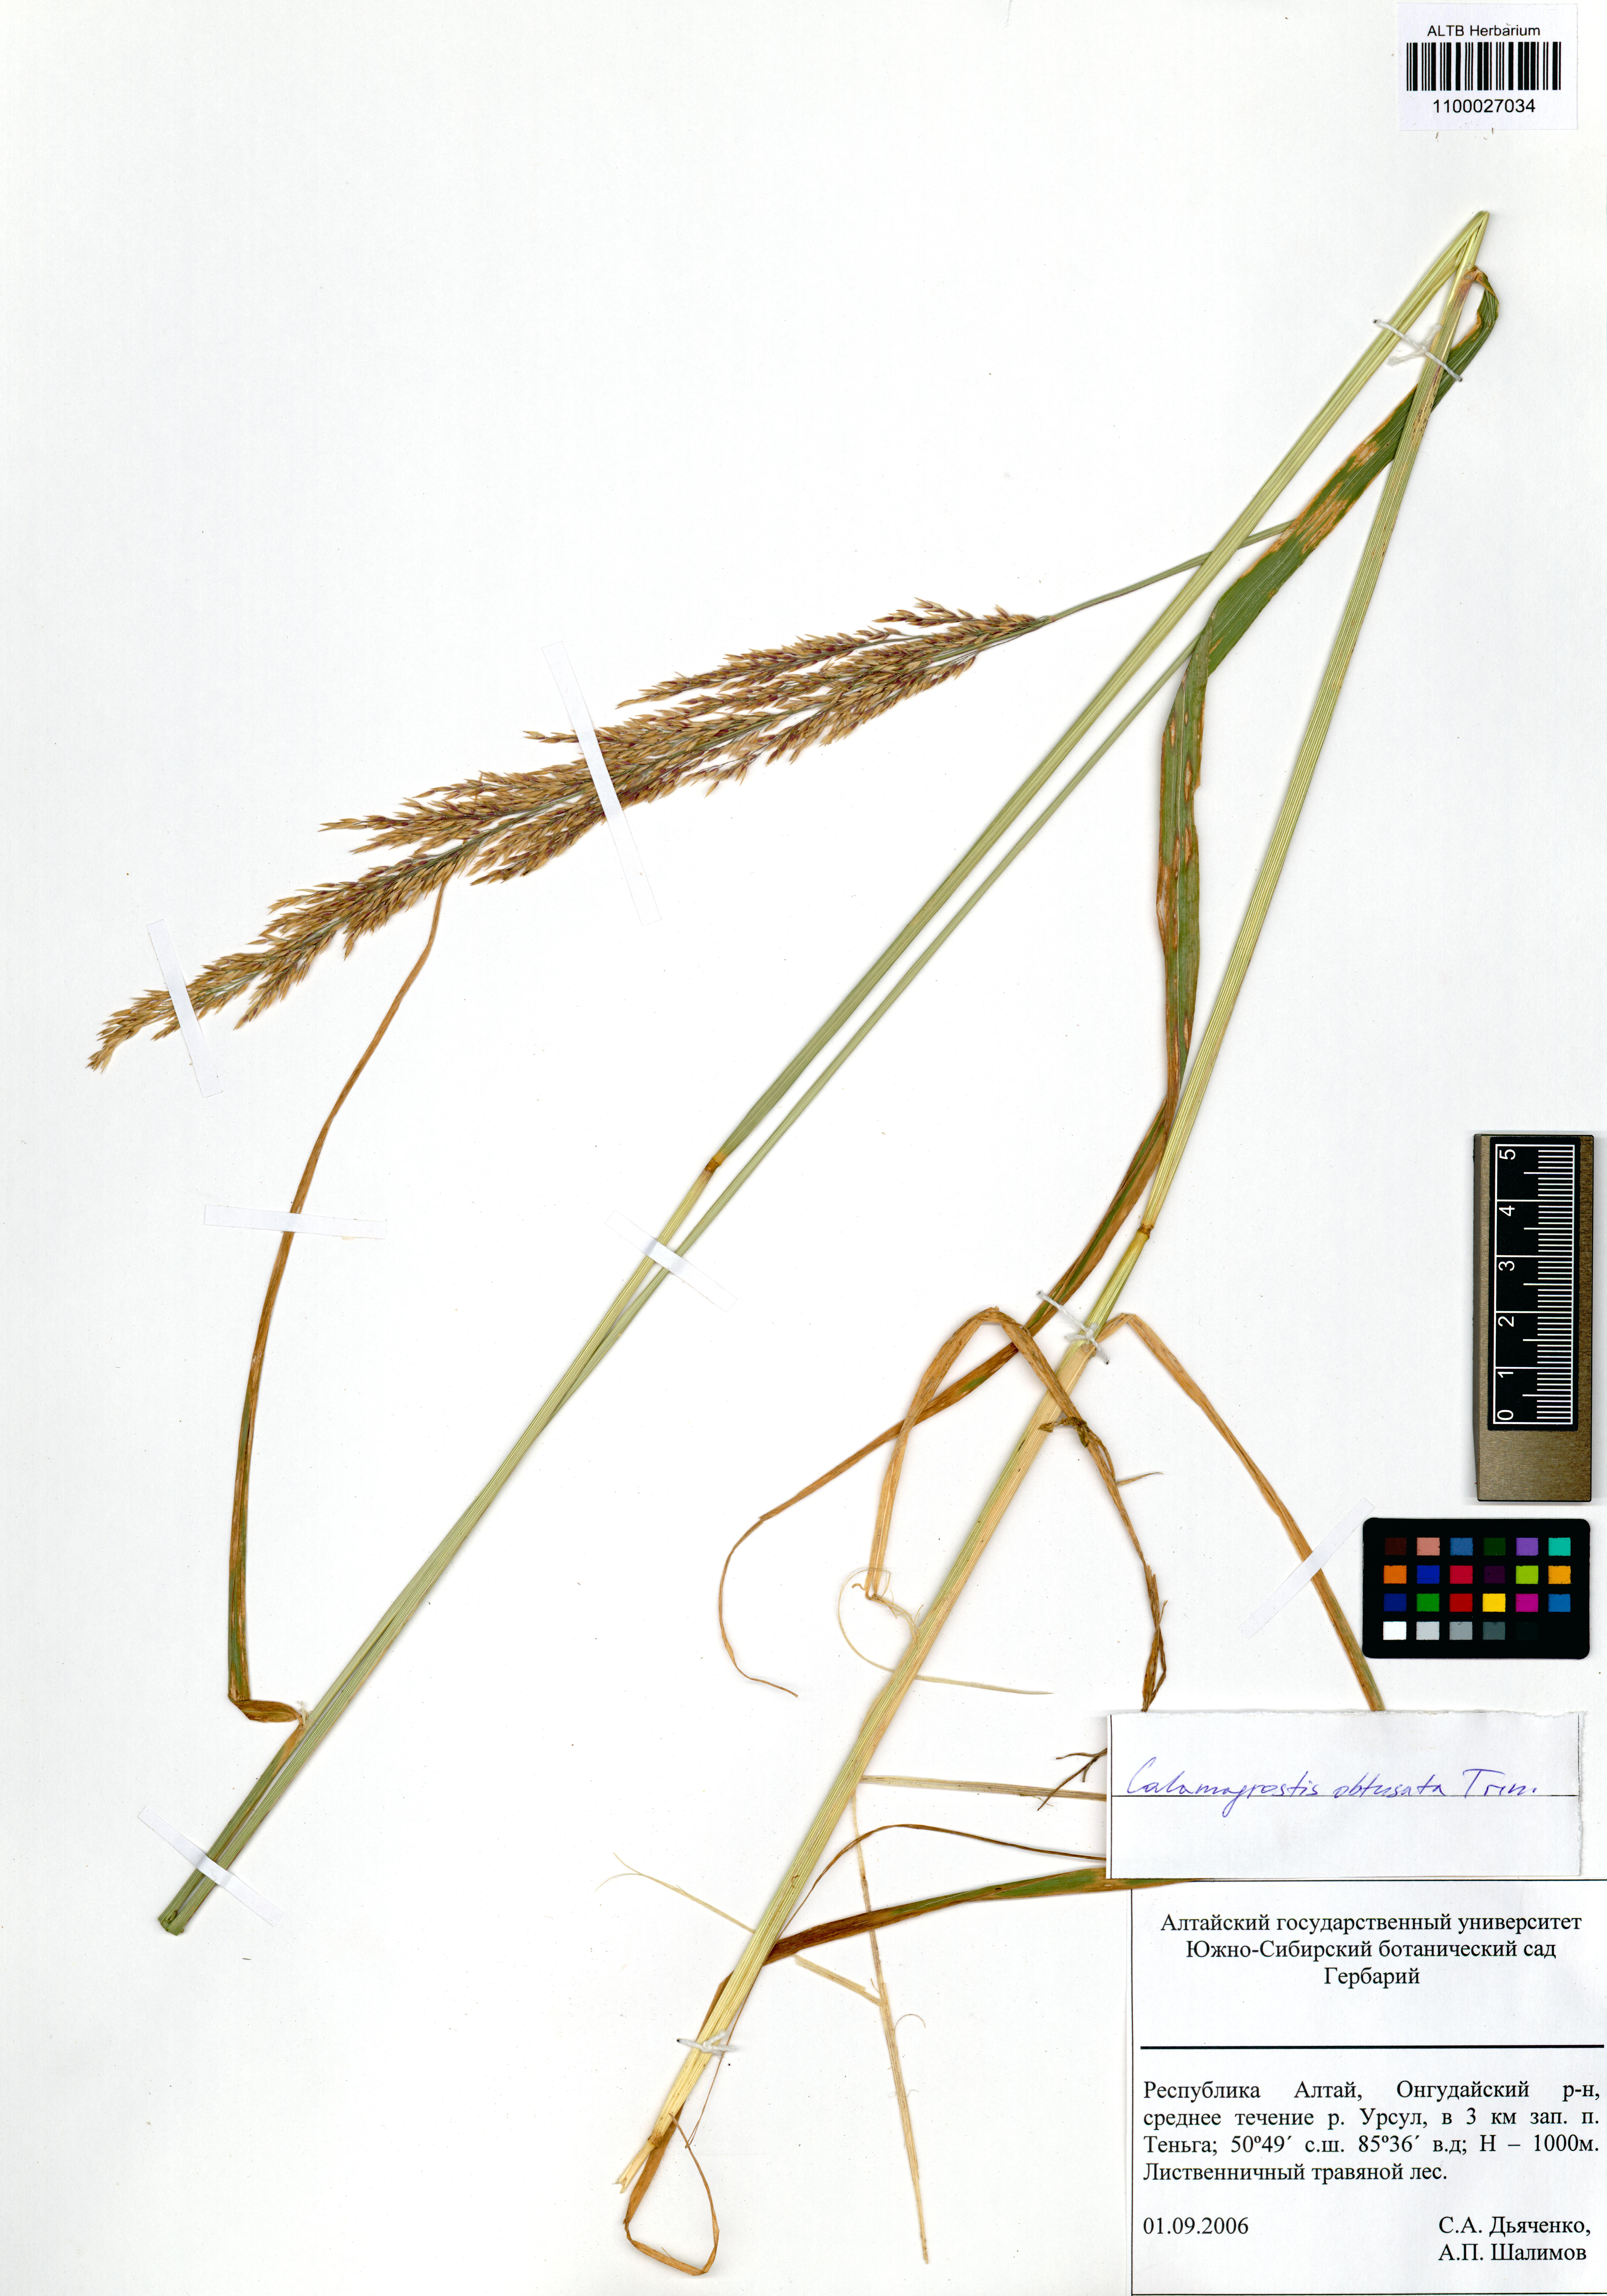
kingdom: Plantae
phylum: Tracheophyta
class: Liliopsida
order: Poales
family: Poaceae
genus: Calamagrostis
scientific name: Calamagrostis obtusata
